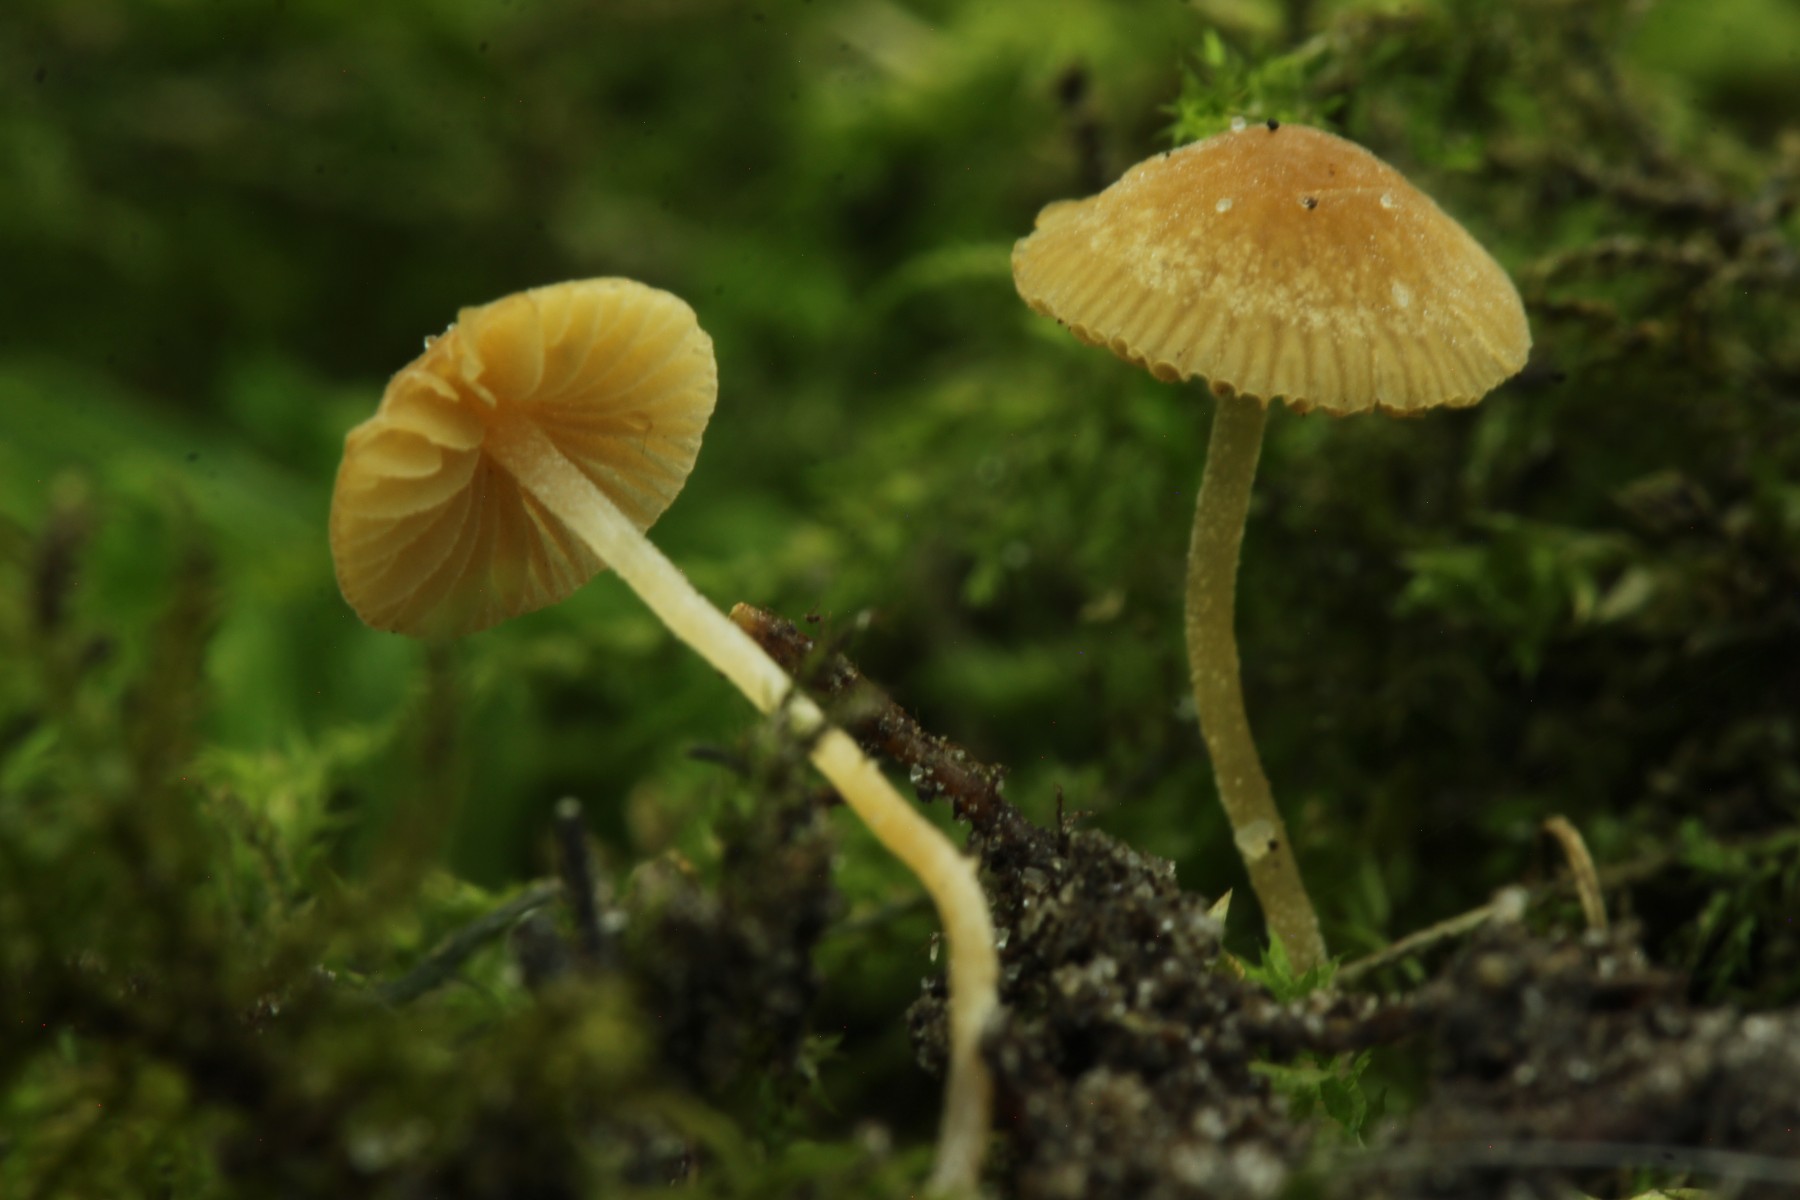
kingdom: Fungi
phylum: Basidiomycota
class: Agaricomycetes
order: Agaricales
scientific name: Agaricales
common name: champignonordenen
